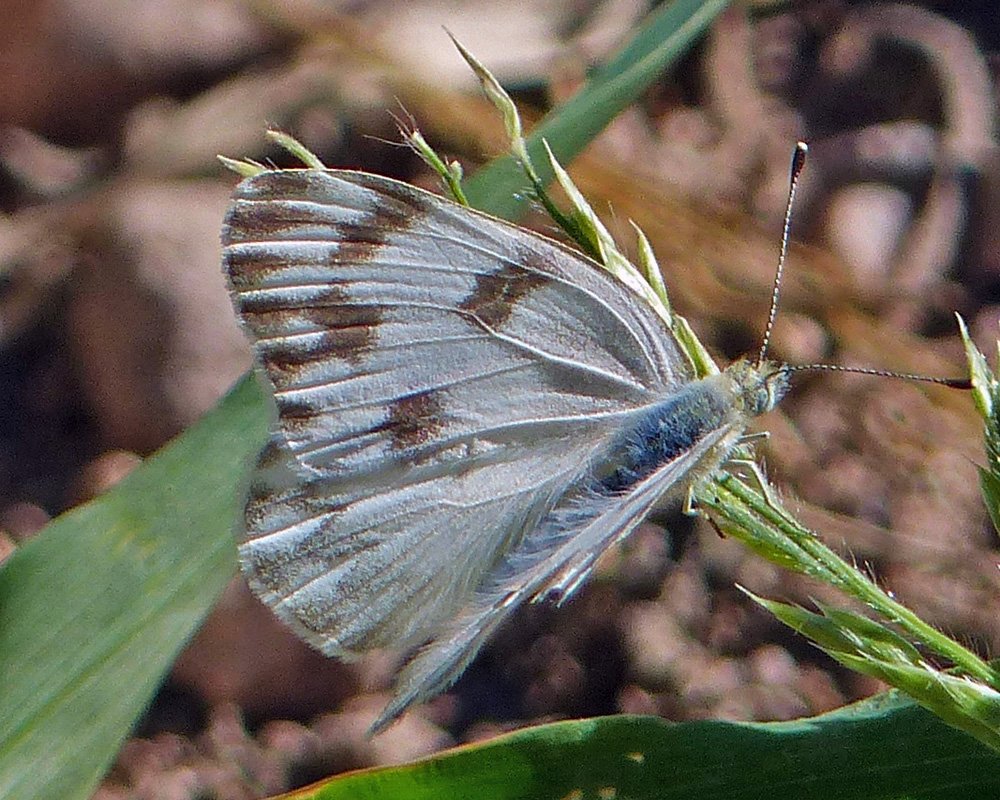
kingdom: Animalia
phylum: Arthropoda
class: Insecta
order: Lepidoptera
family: Pieridae
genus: Pontia
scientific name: Pontia protodice
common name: Checkered White
